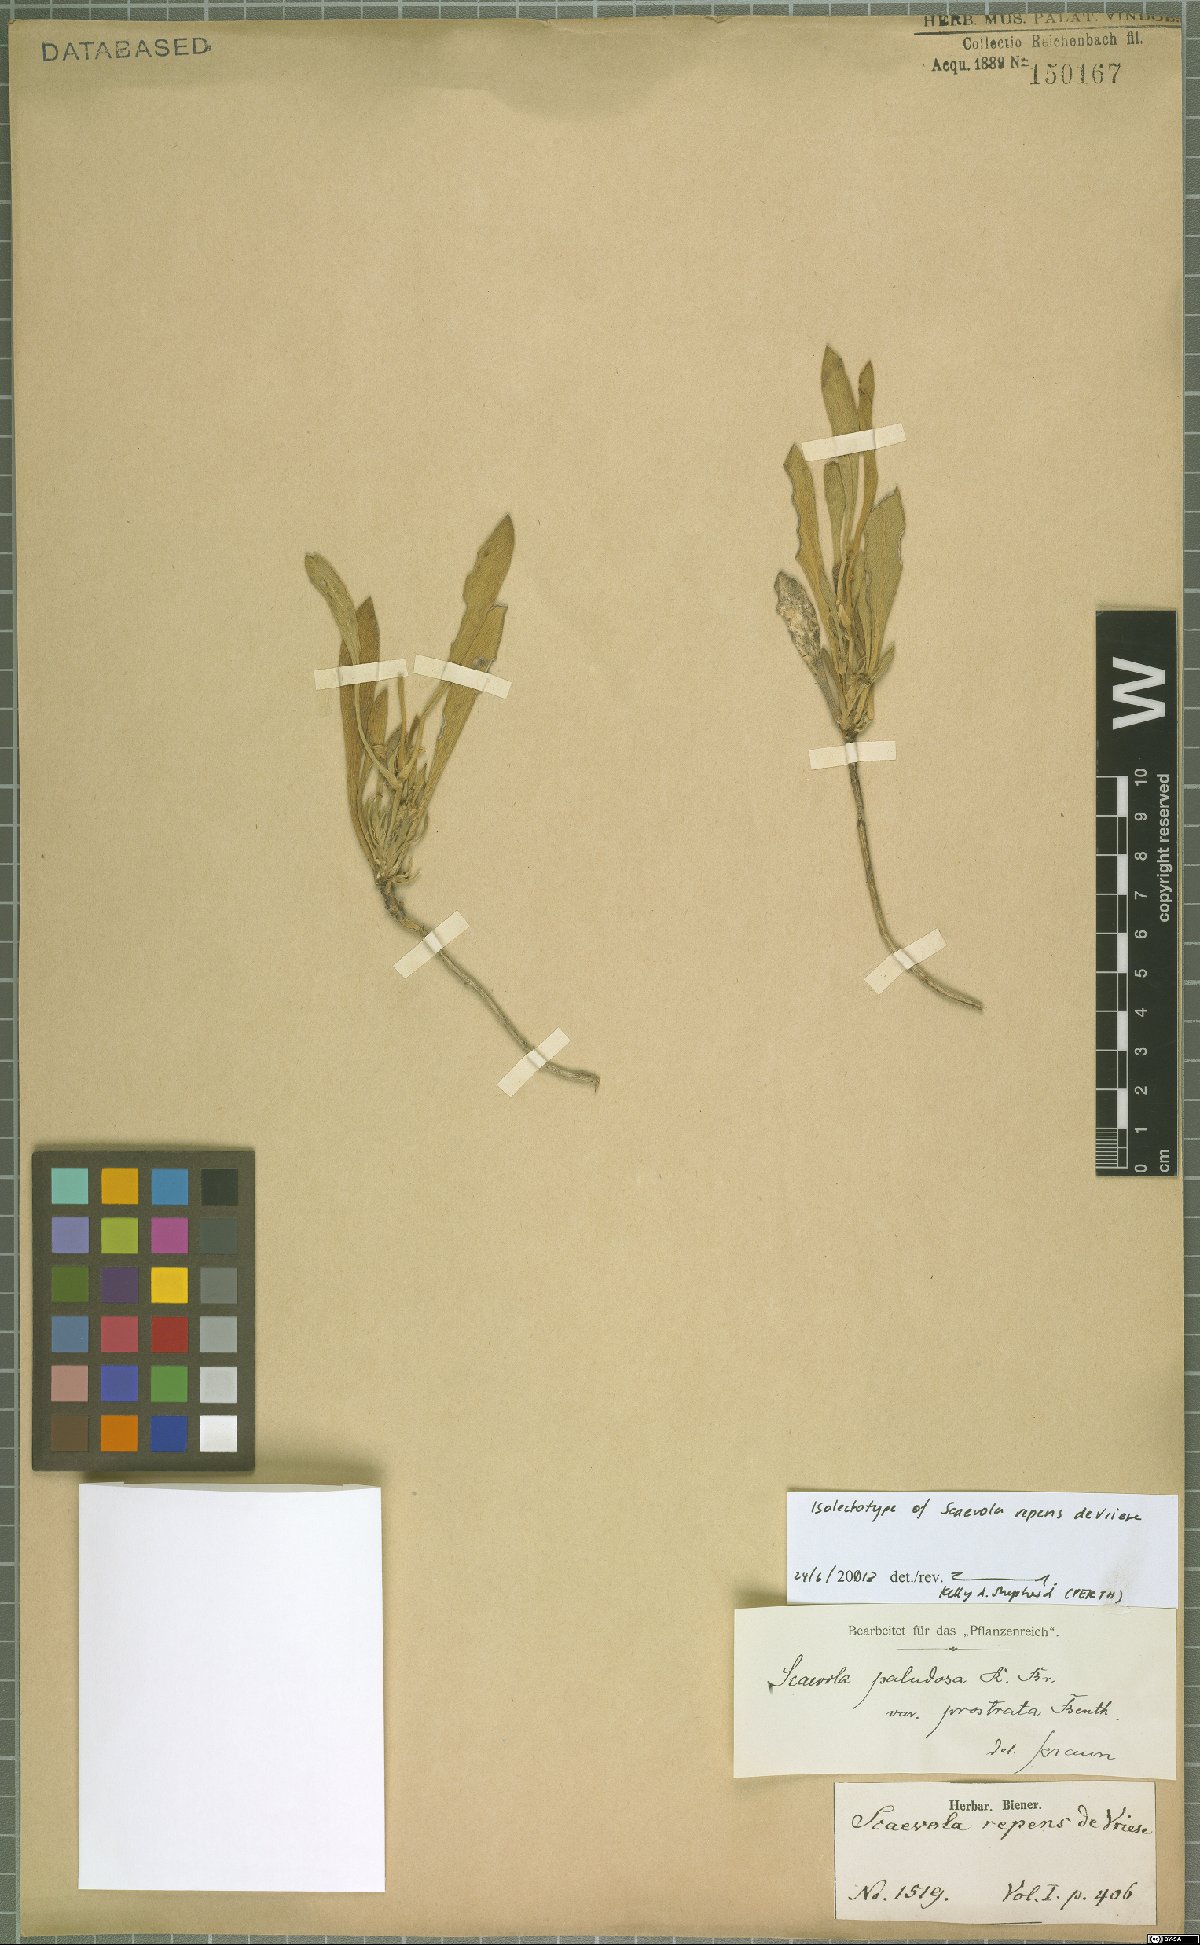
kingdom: Plantae
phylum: Tracheophyta
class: Magnoliopsida
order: Asterales
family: Goodeniaceae
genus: Scaevola
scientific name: Scaevola repens
